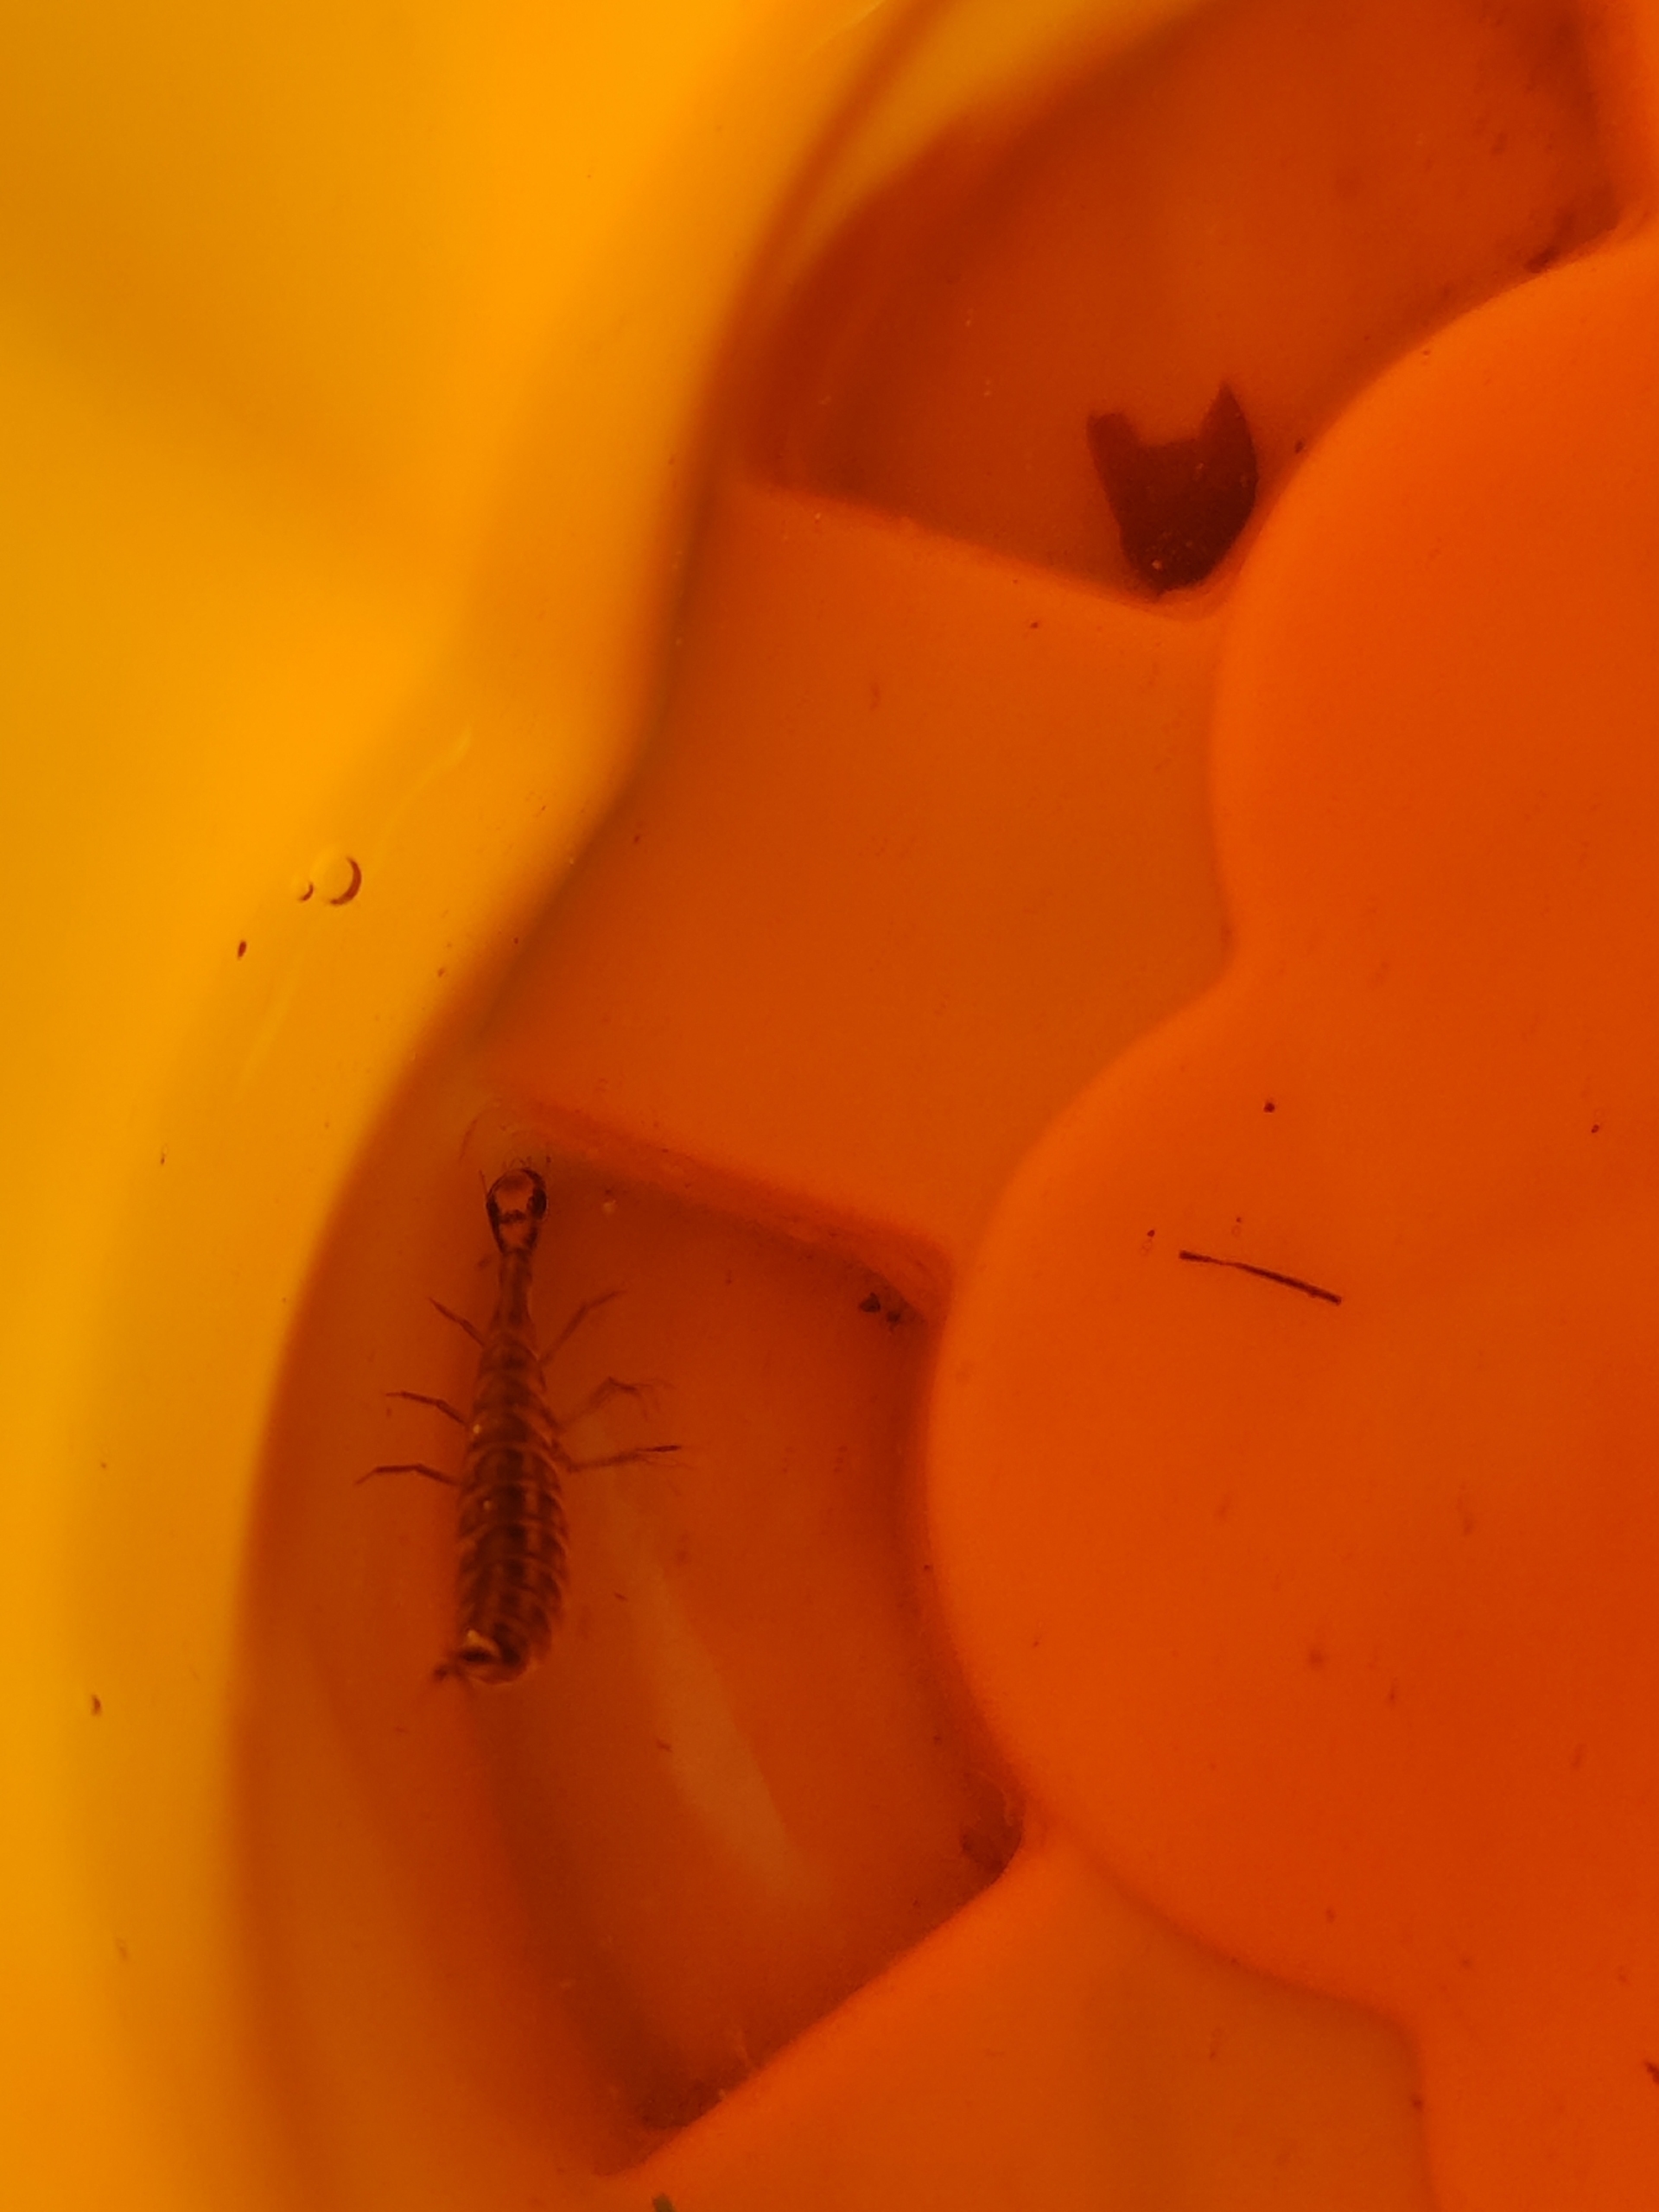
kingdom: Animalia
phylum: Arthropoda
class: Insecta
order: Coleoptera
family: Dytiscidae
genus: Acilius
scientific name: Acilius sulcatus
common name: Stribet skivevandkalv
